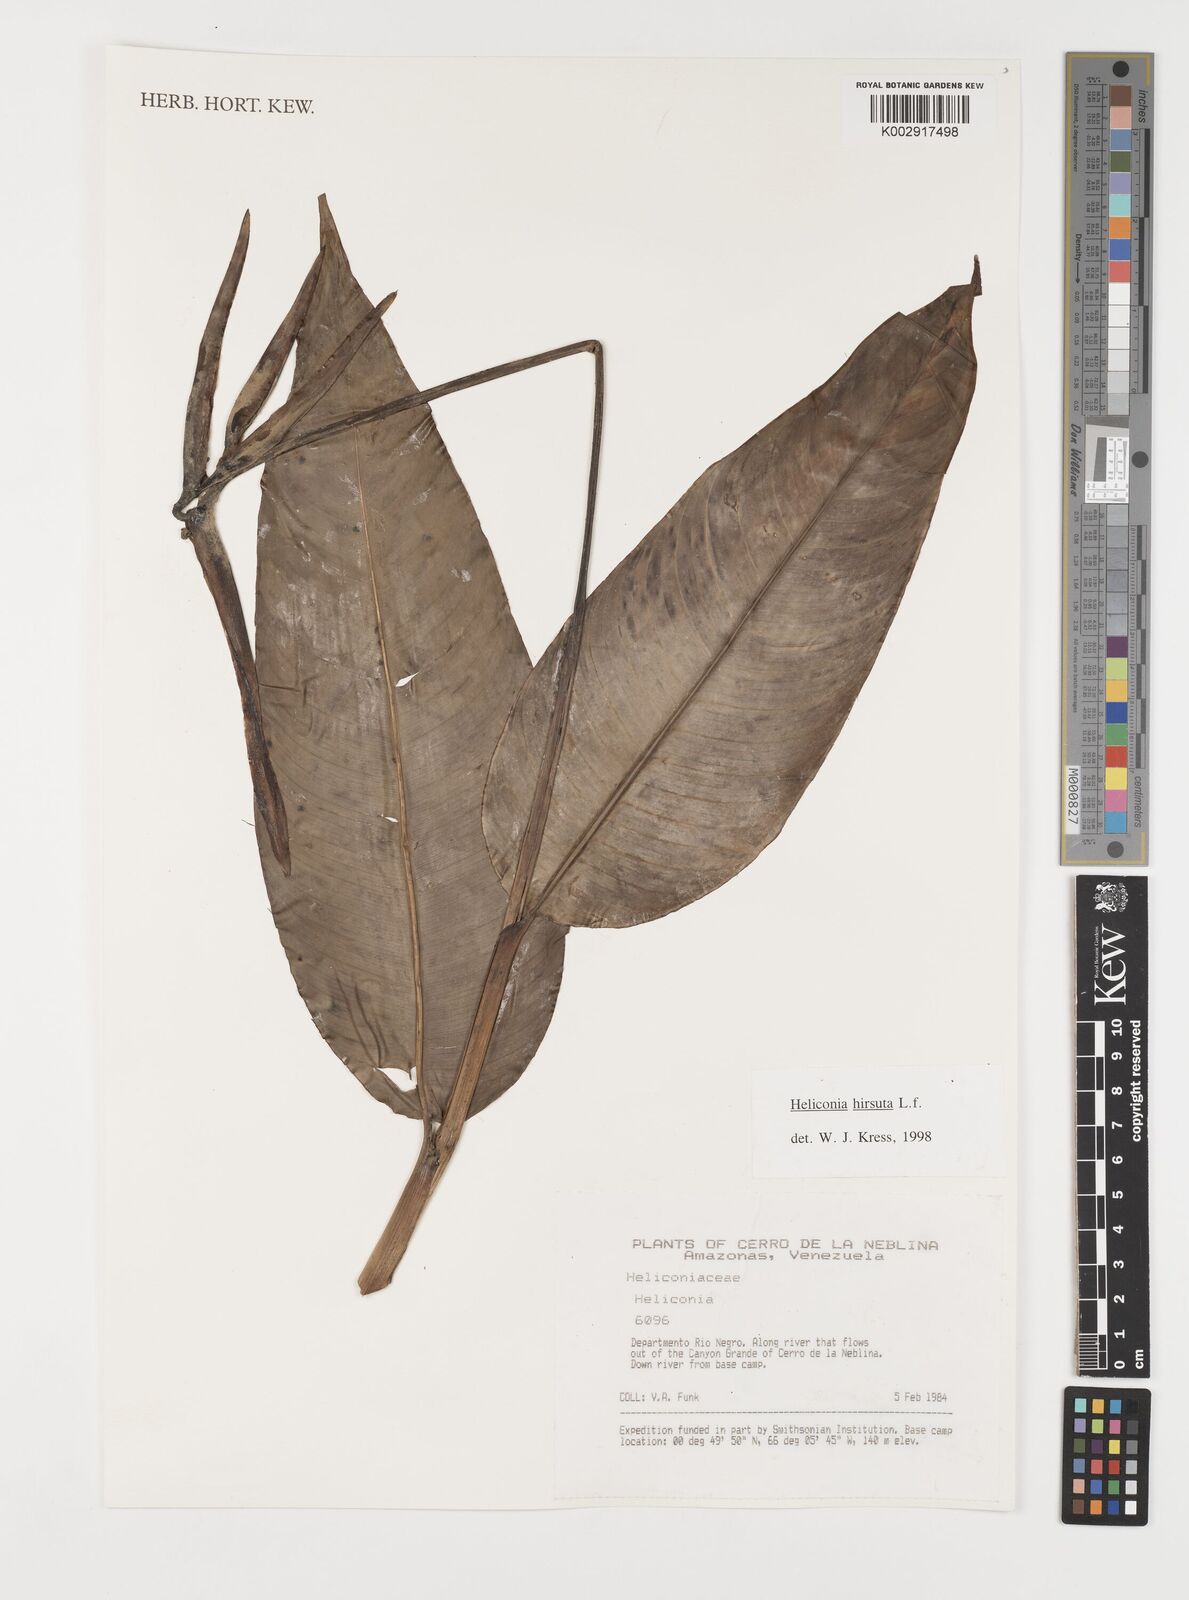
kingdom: Plantae
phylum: Tracheophyta
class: Liliopsida
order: Zingiberales
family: Heliconiaceae
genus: Heliconia
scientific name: Heliconia hirsuta
